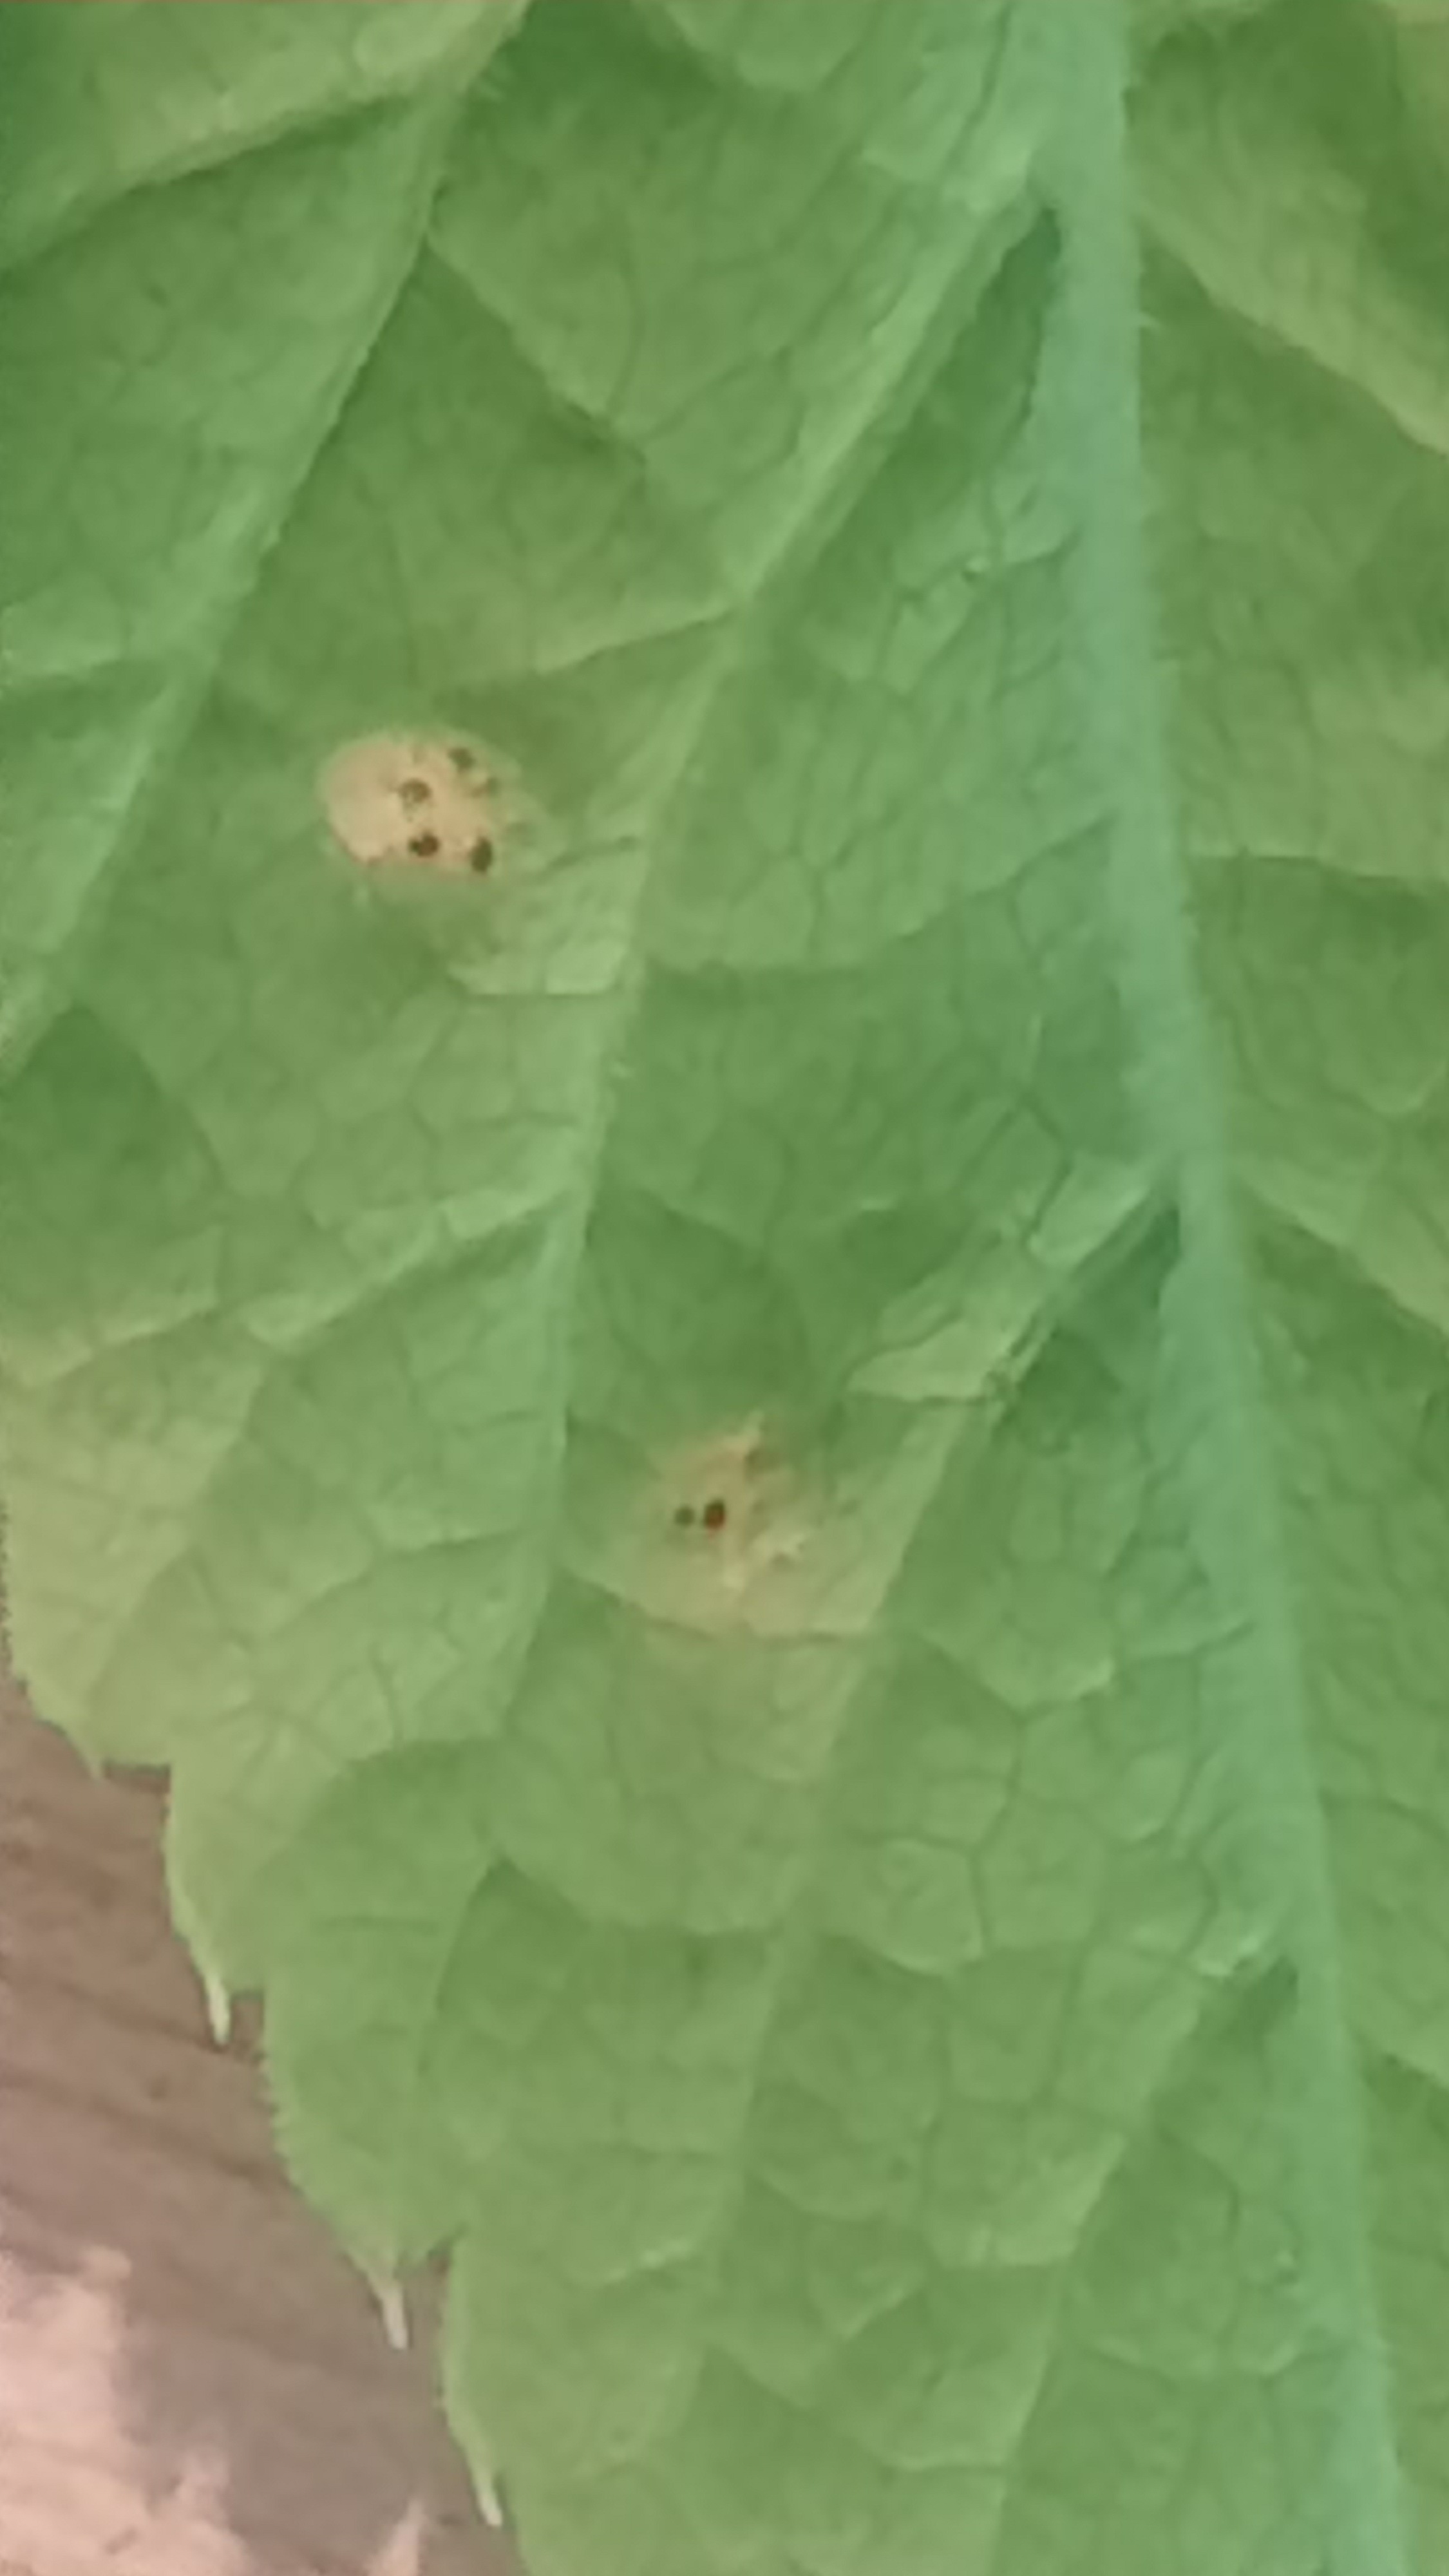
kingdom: Fungi
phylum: Basidiomycota
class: Pucciniomycetes
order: Pucciniales
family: Pucciniaceae
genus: Puccinia
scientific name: Puccinia
